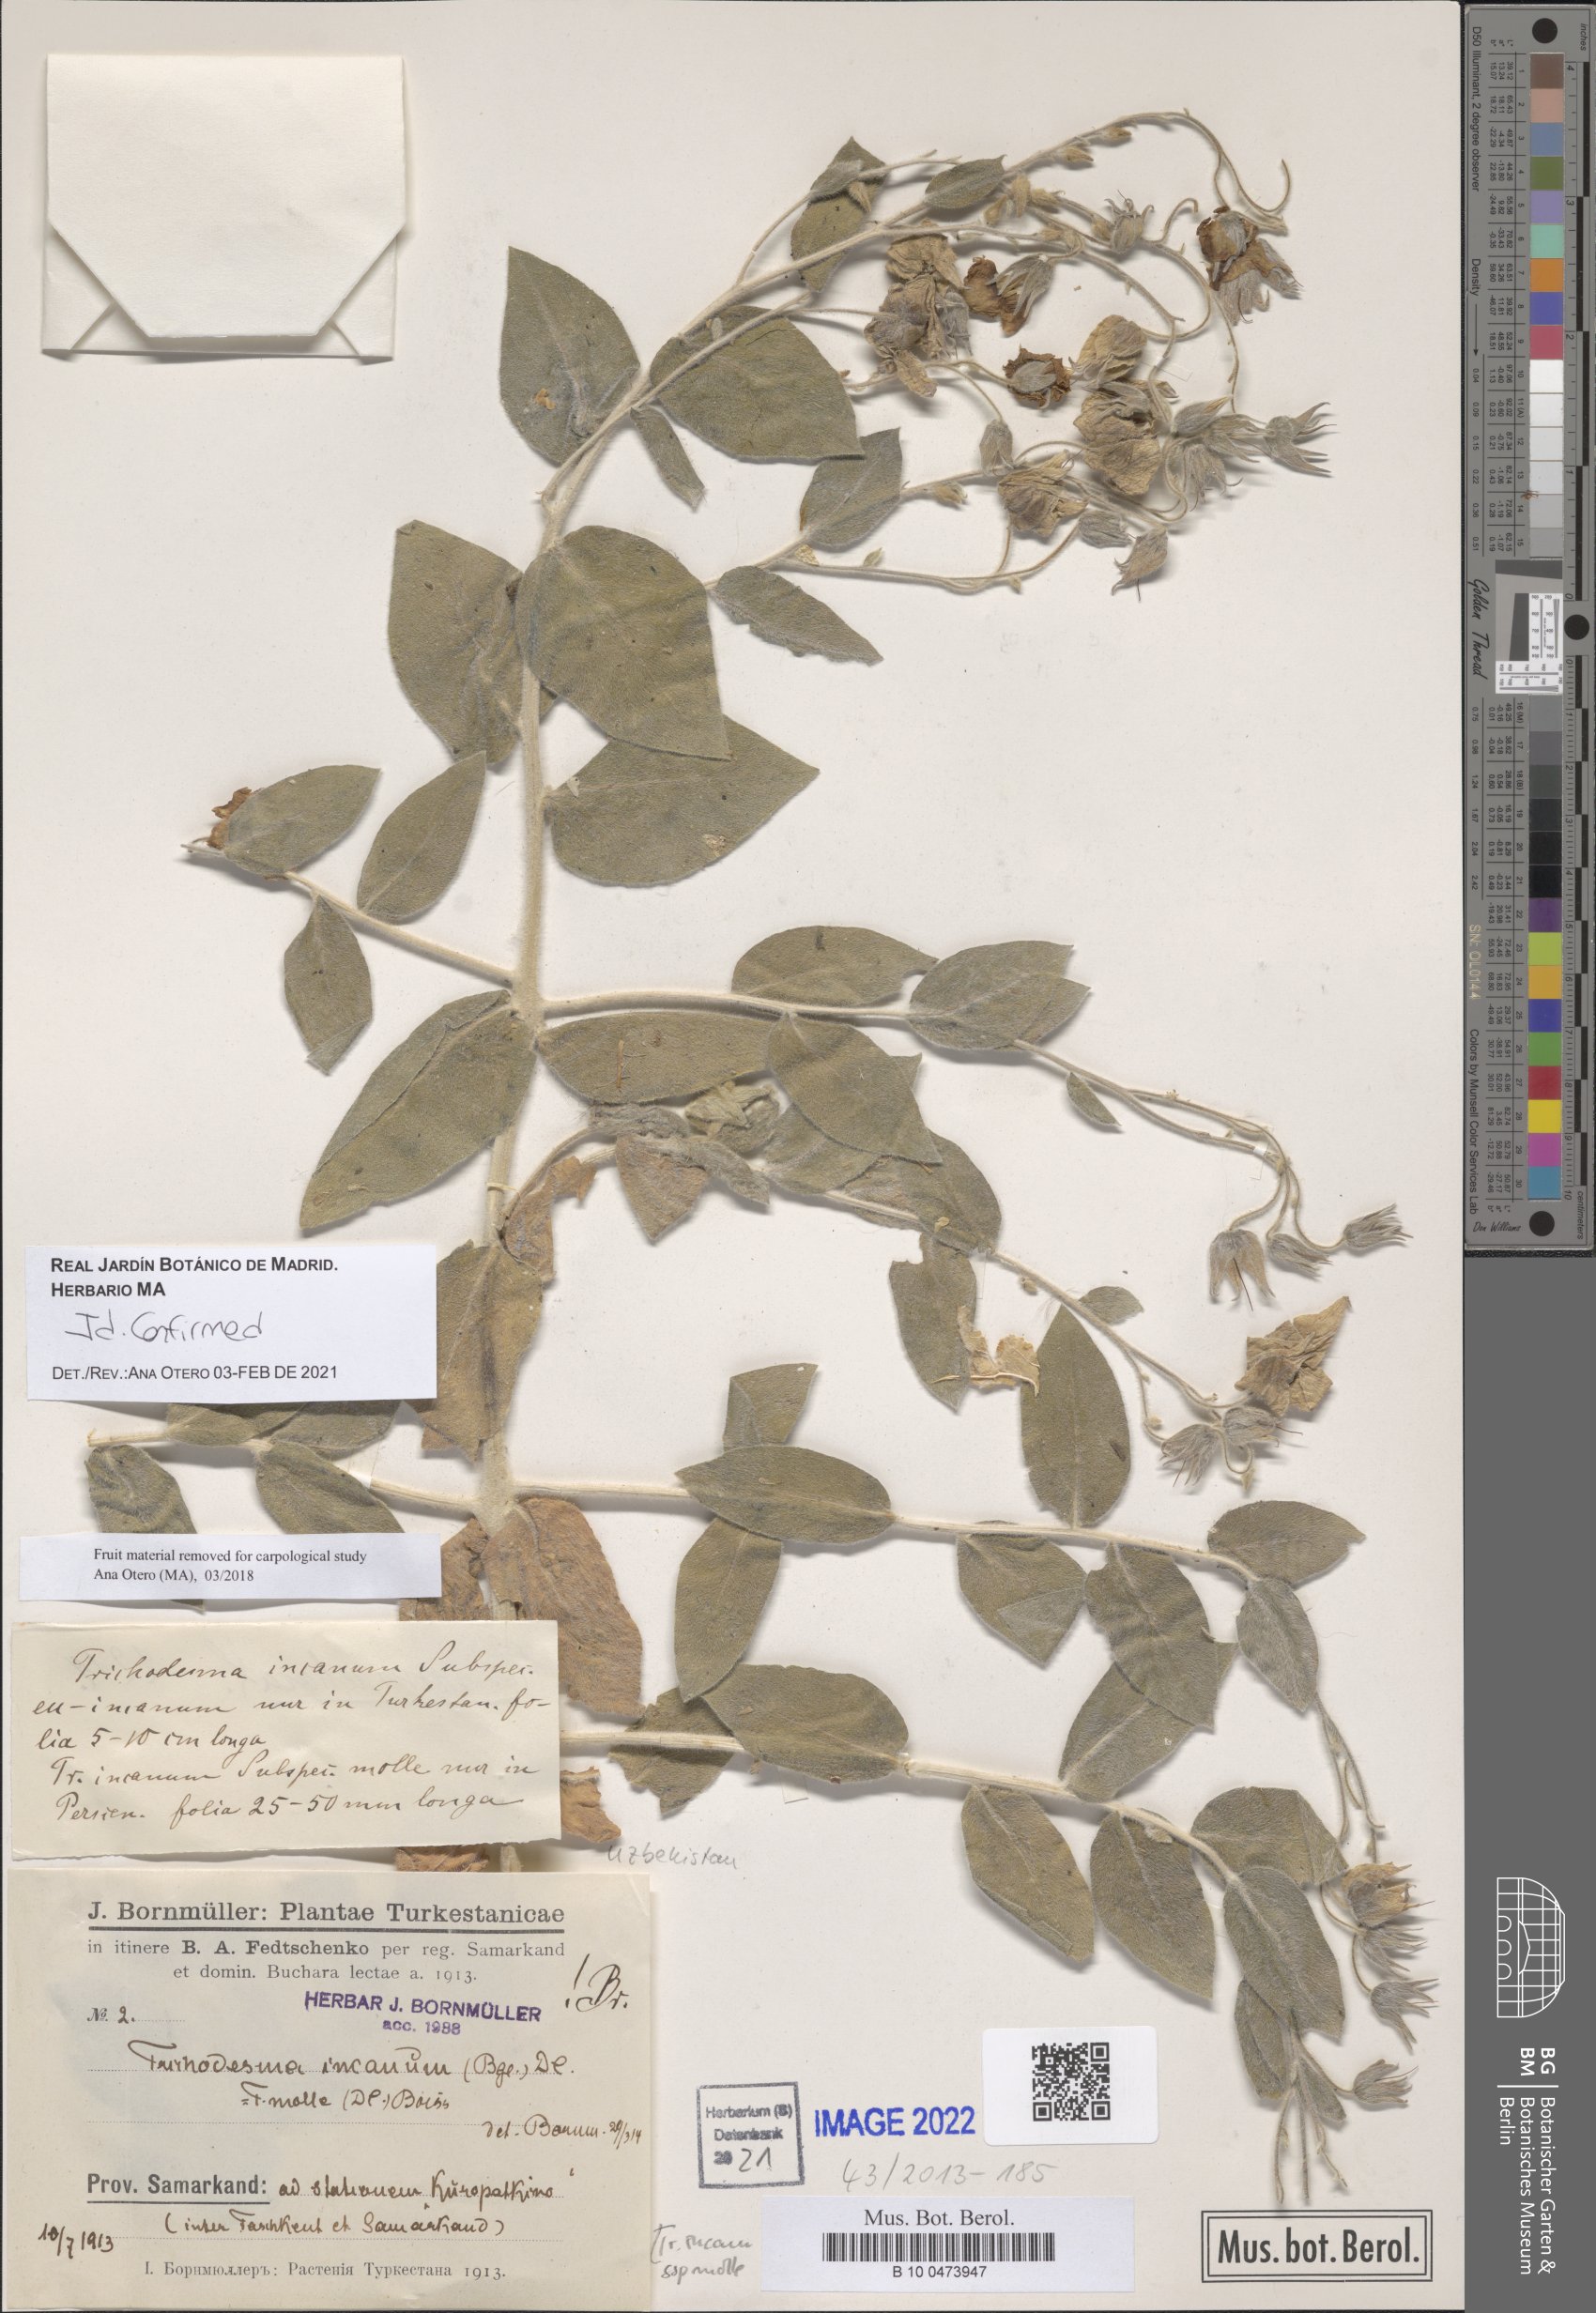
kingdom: Plantae
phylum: Tracheophyta
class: Magnoliopsida
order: Boraginales
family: Boraginaceae
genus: Trichodesma
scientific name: Trichodesma incanum
